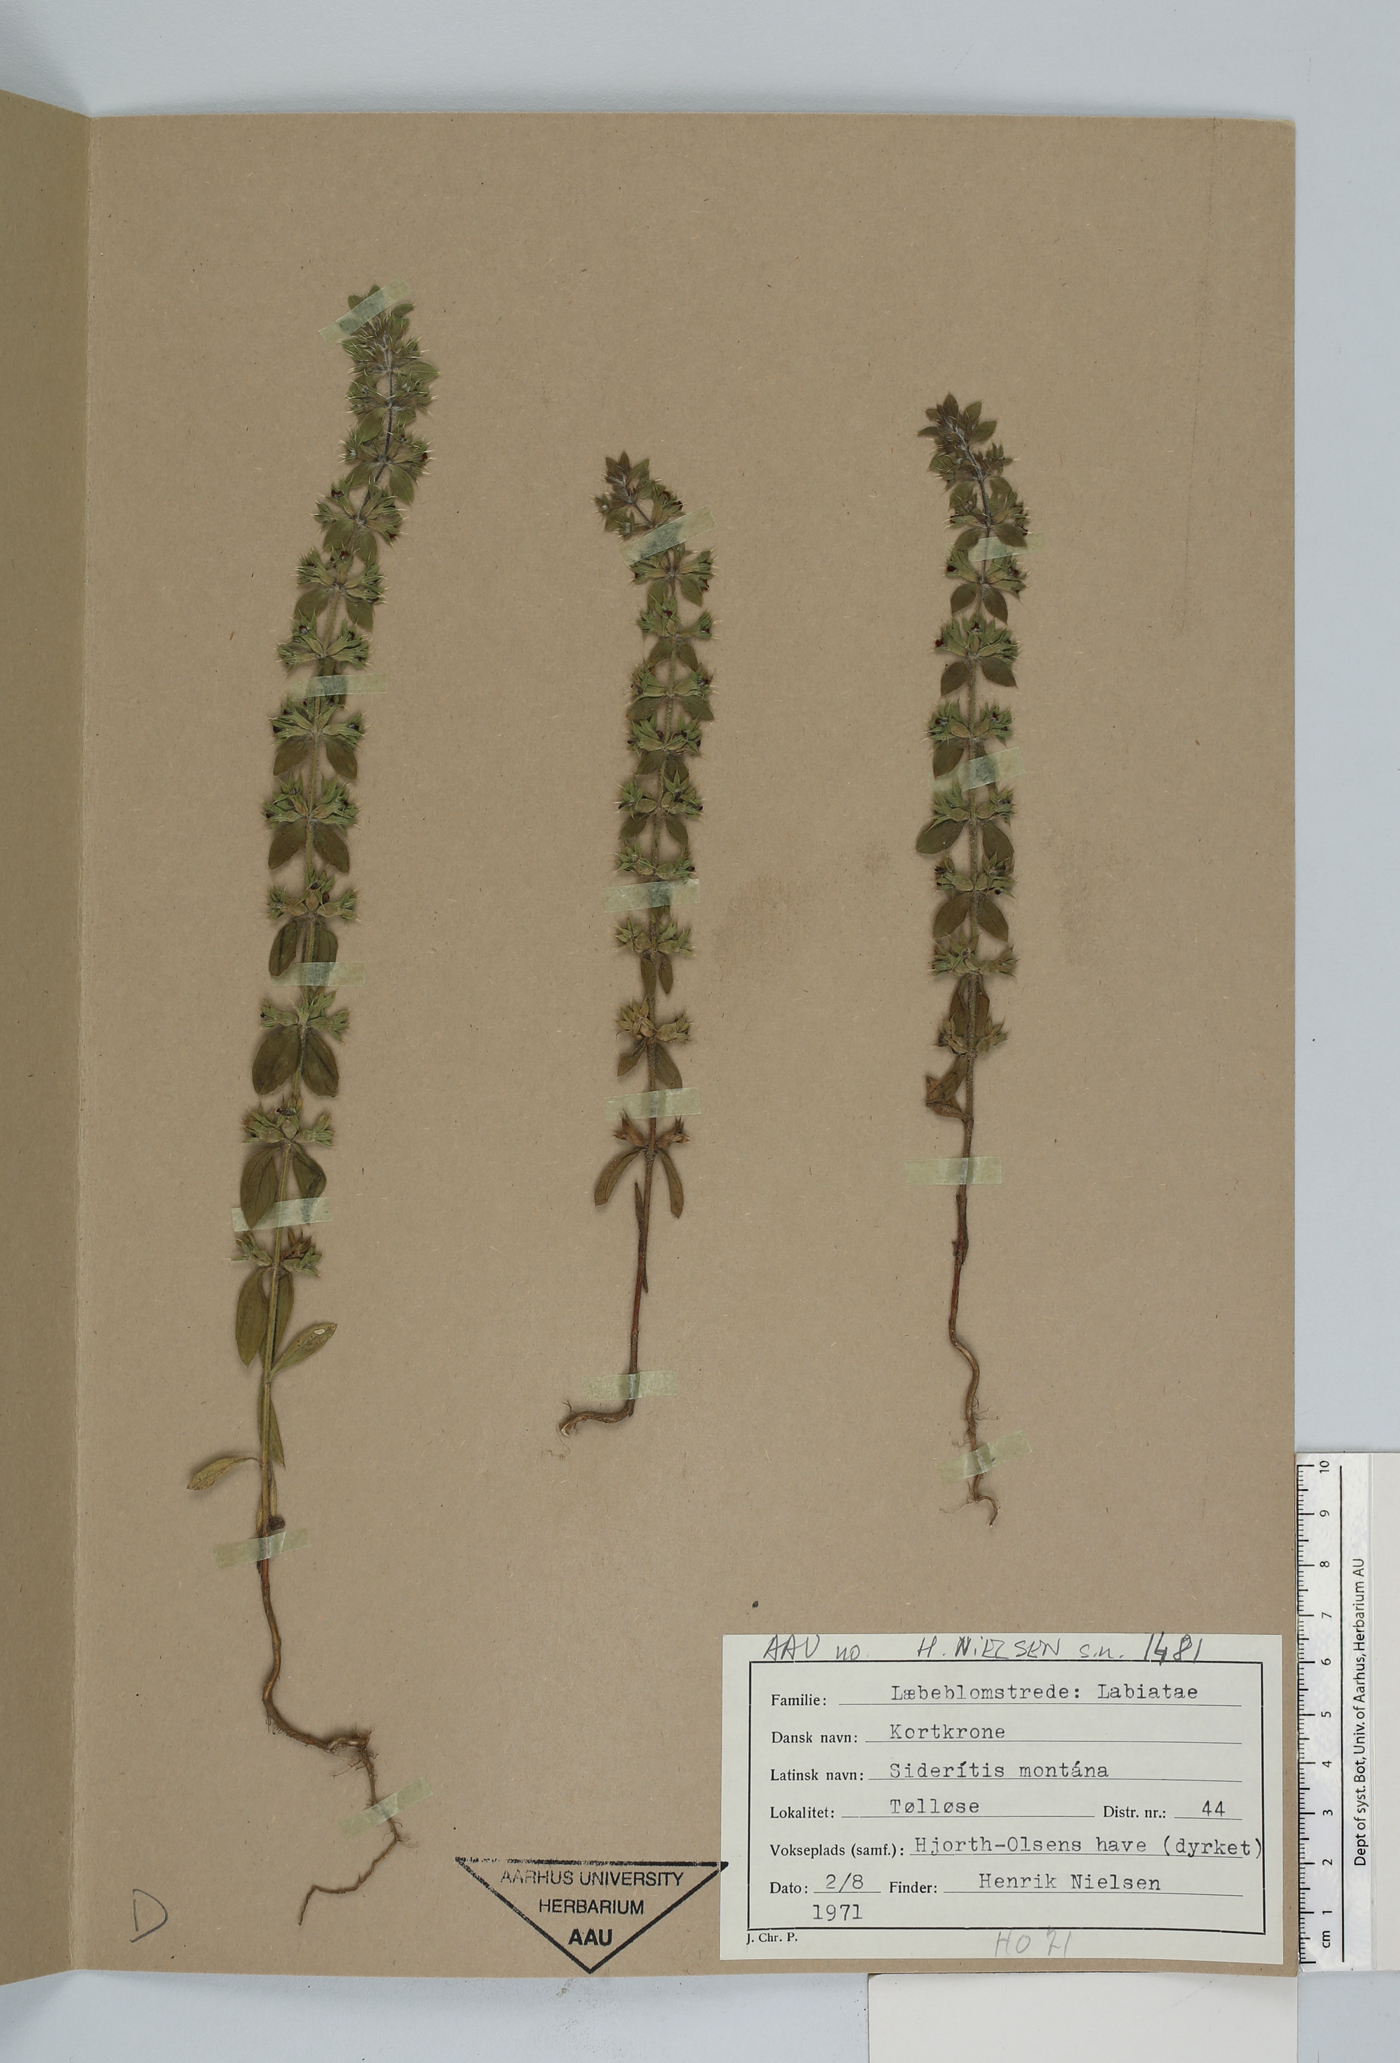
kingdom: Plantae
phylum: Tracheophyta
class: Magnoliopsida
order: Lamiales
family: Lamiaceae
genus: Sideritis
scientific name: Sideritis montana
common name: Mountain ironwort
